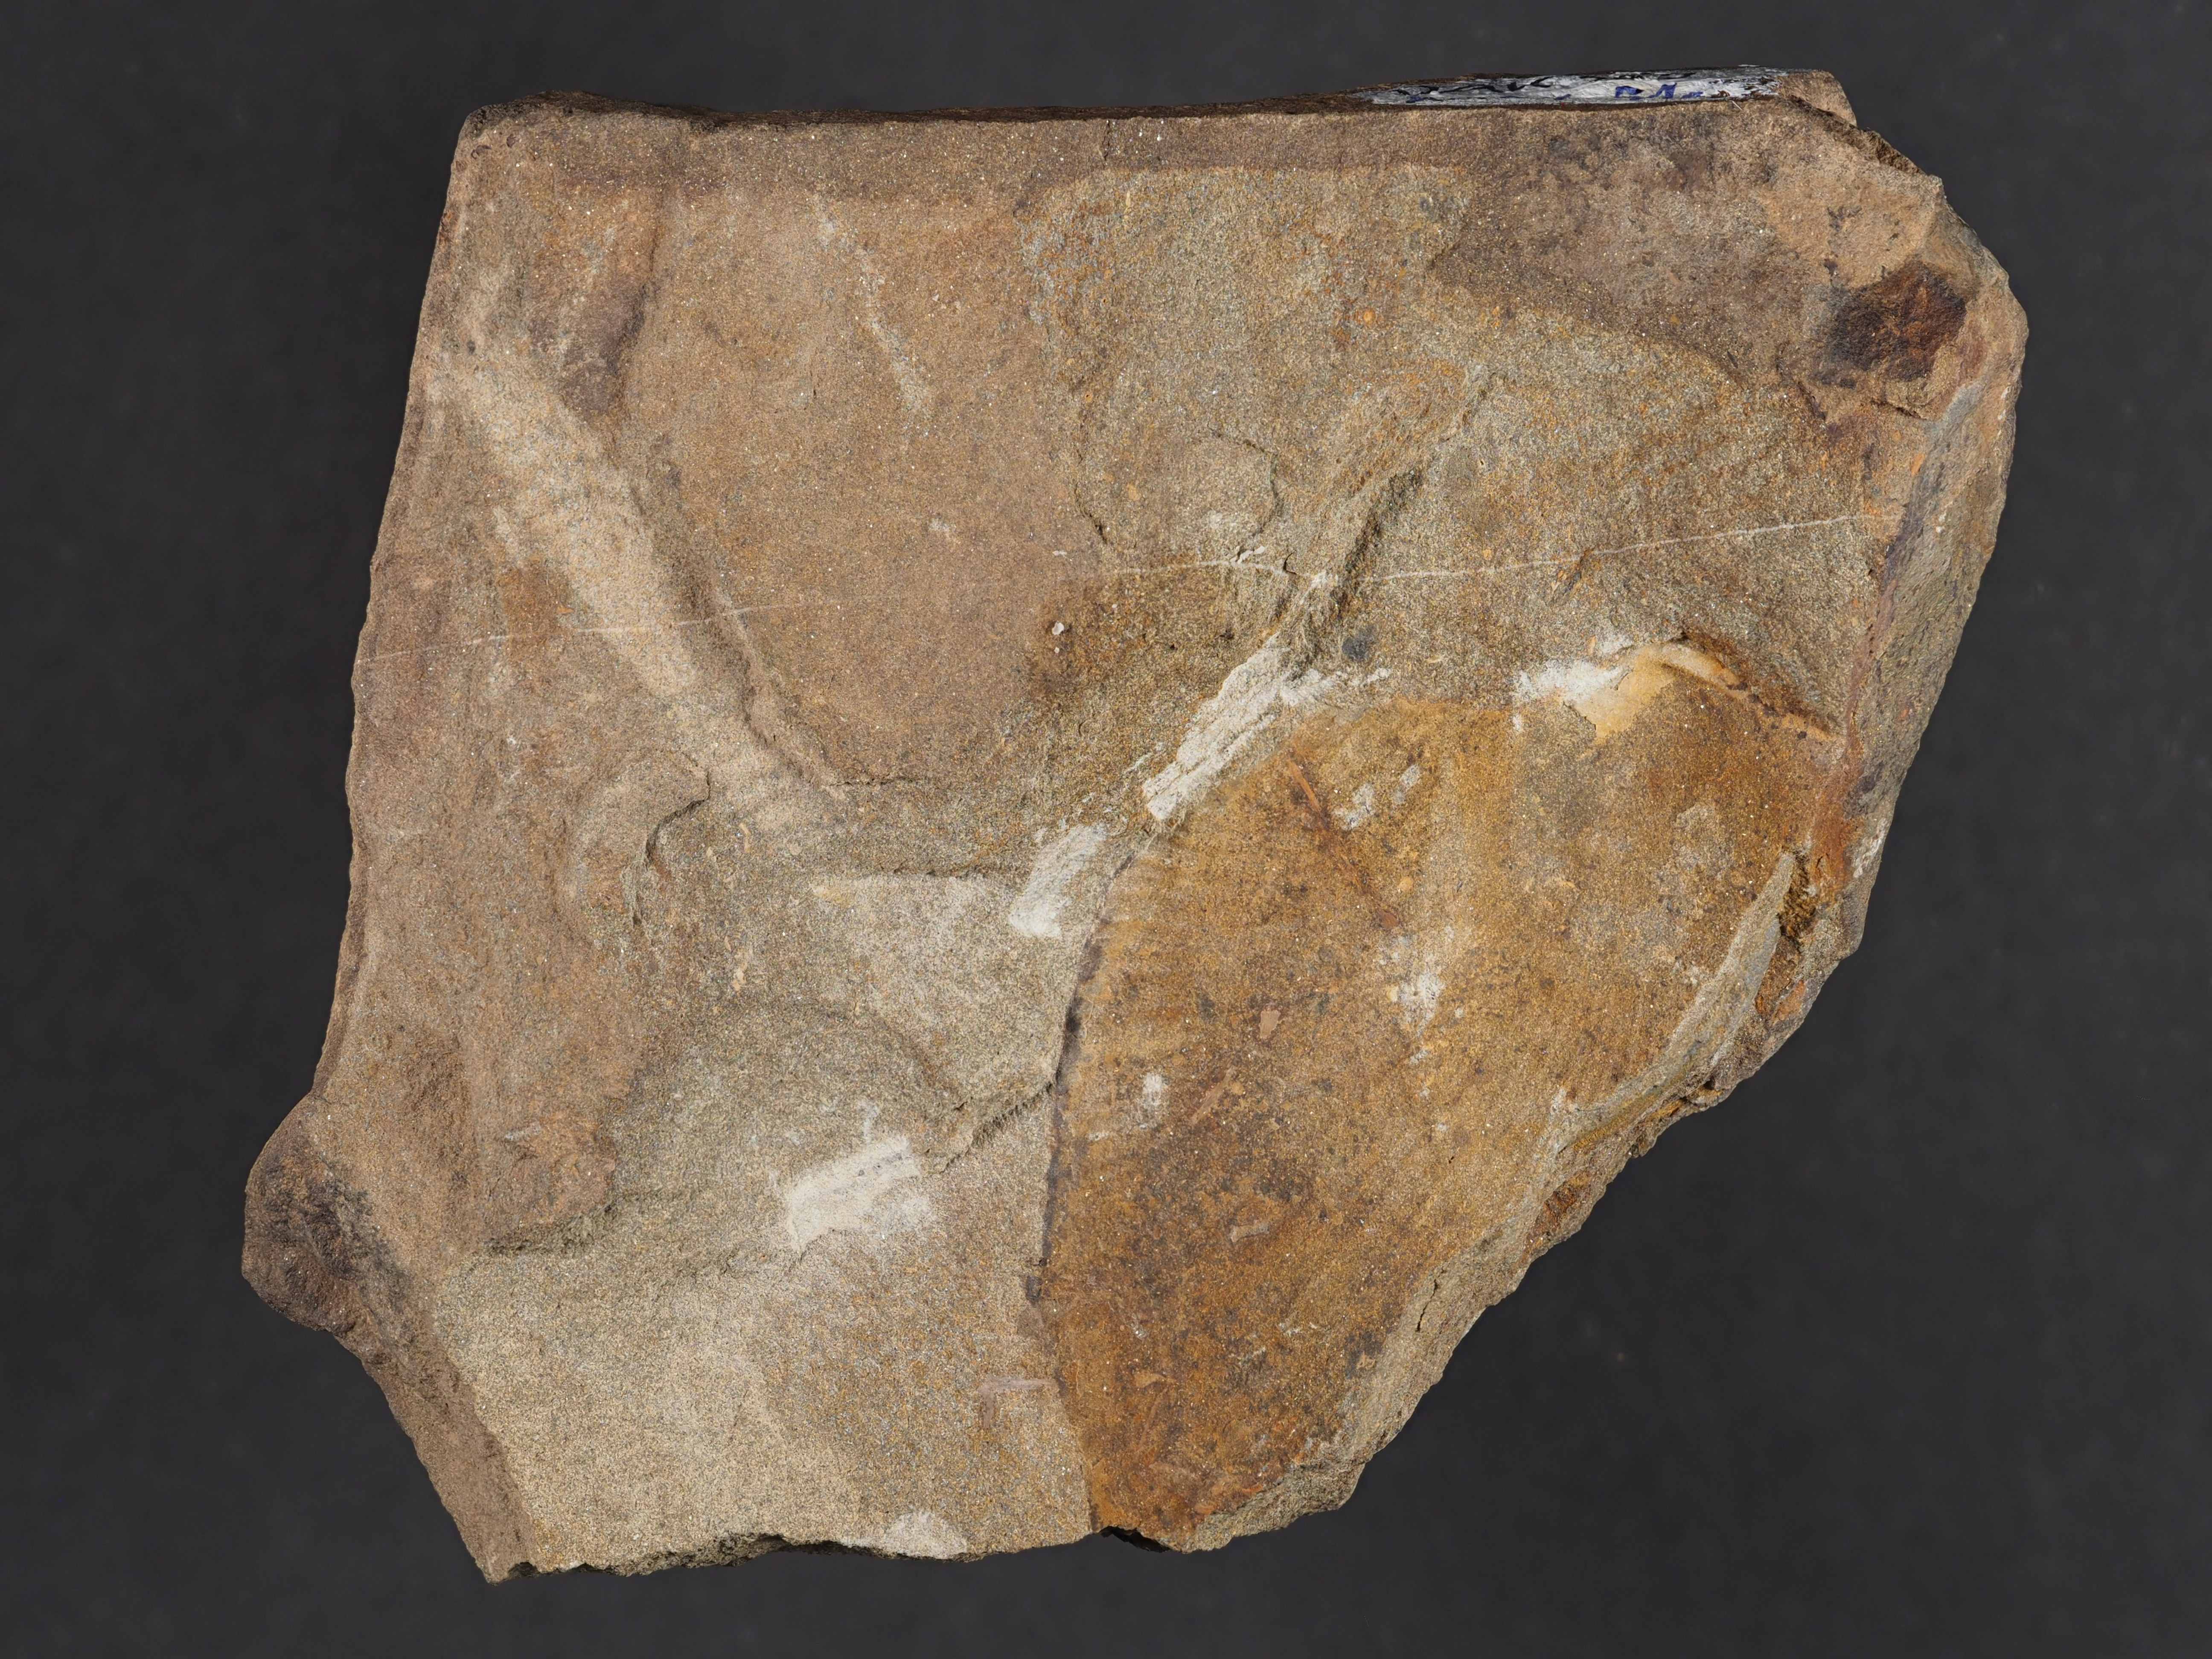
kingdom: Animalia
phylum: Arthropoda
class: Trilobita
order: Phacopida
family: Homalonotidae
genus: Digonus
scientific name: Digonus
